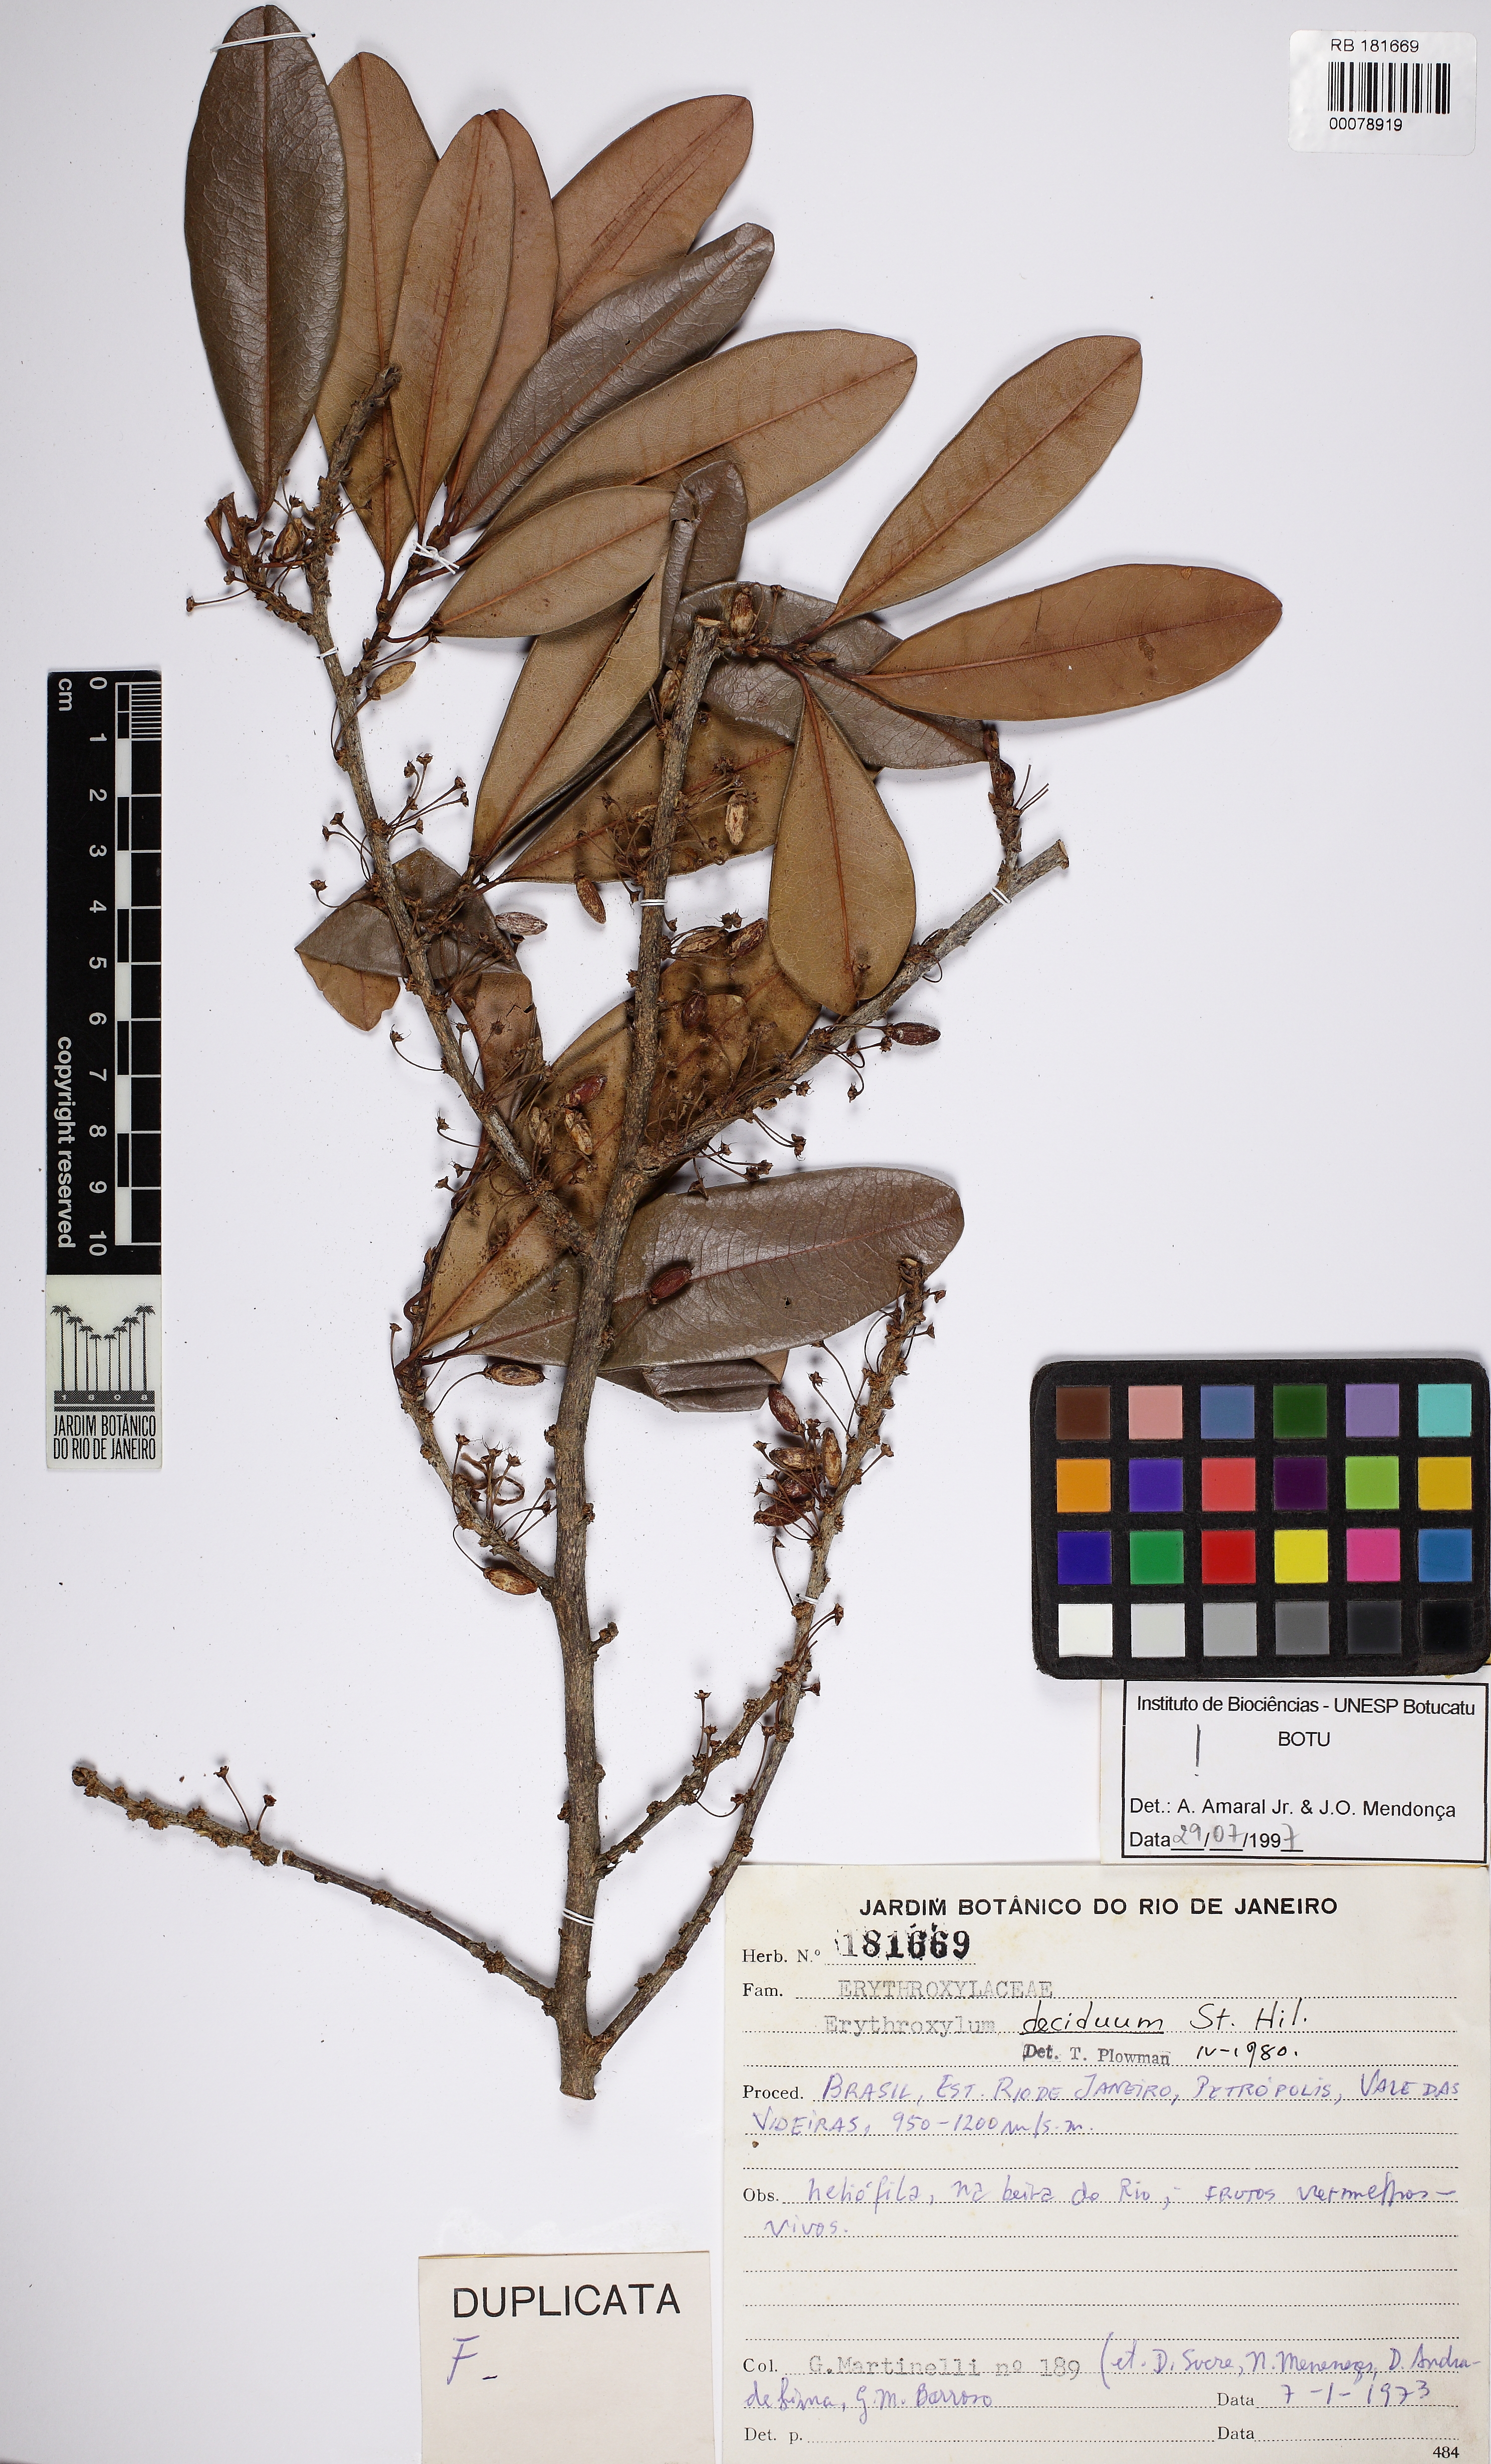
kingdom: Plantae
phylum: Tracheophyta
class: Magnoliopsida
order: Malpighiales
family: Erythroxylaceae
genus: Erythroxylum
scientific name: Erythroxylum deciduum
